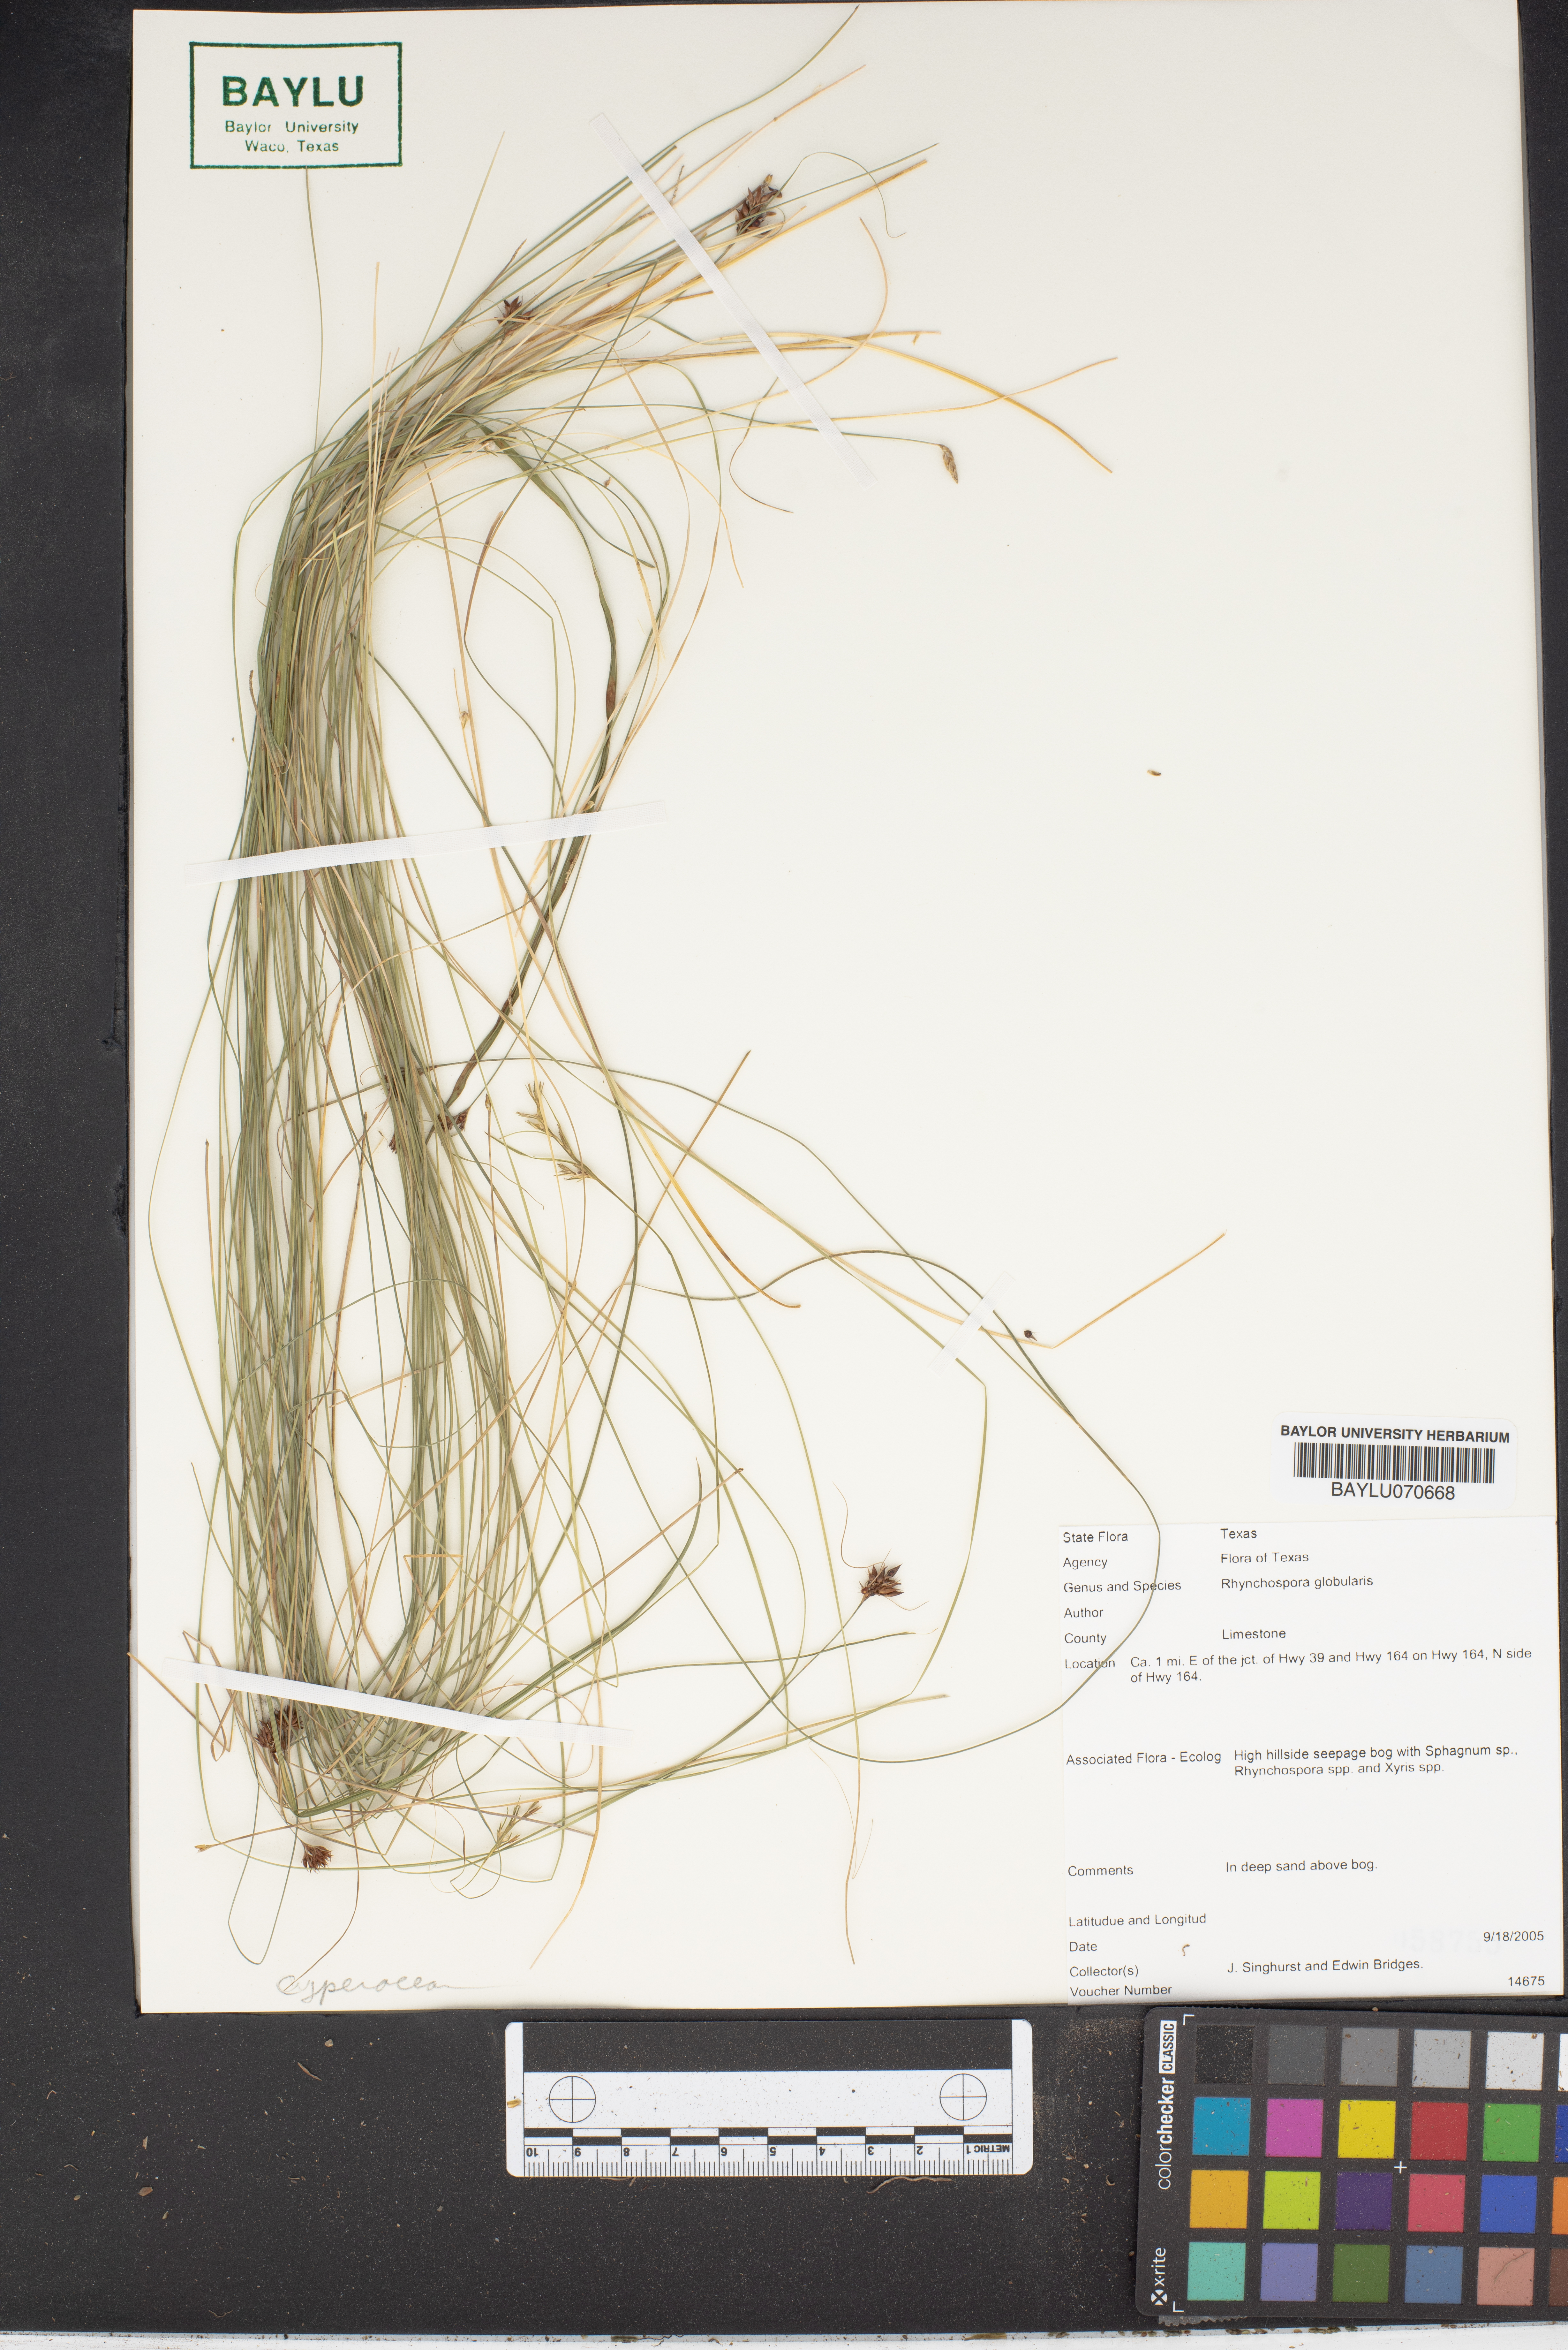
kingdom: Plantae
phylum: Tracheophyta
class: Liliopsida
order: Poales
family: Cyperaceae
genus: Rhynchospora
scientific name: Rhynchospora globularis
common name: Globe beaksedge
